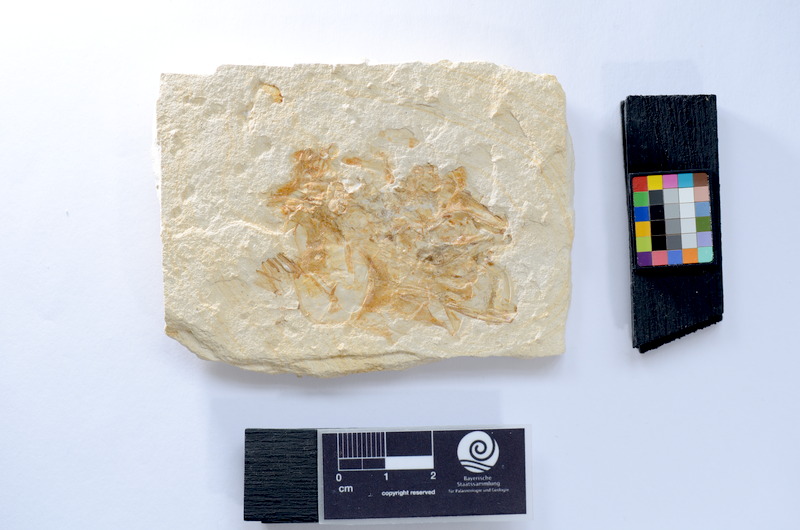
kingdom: Animalia
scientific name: Animalia
